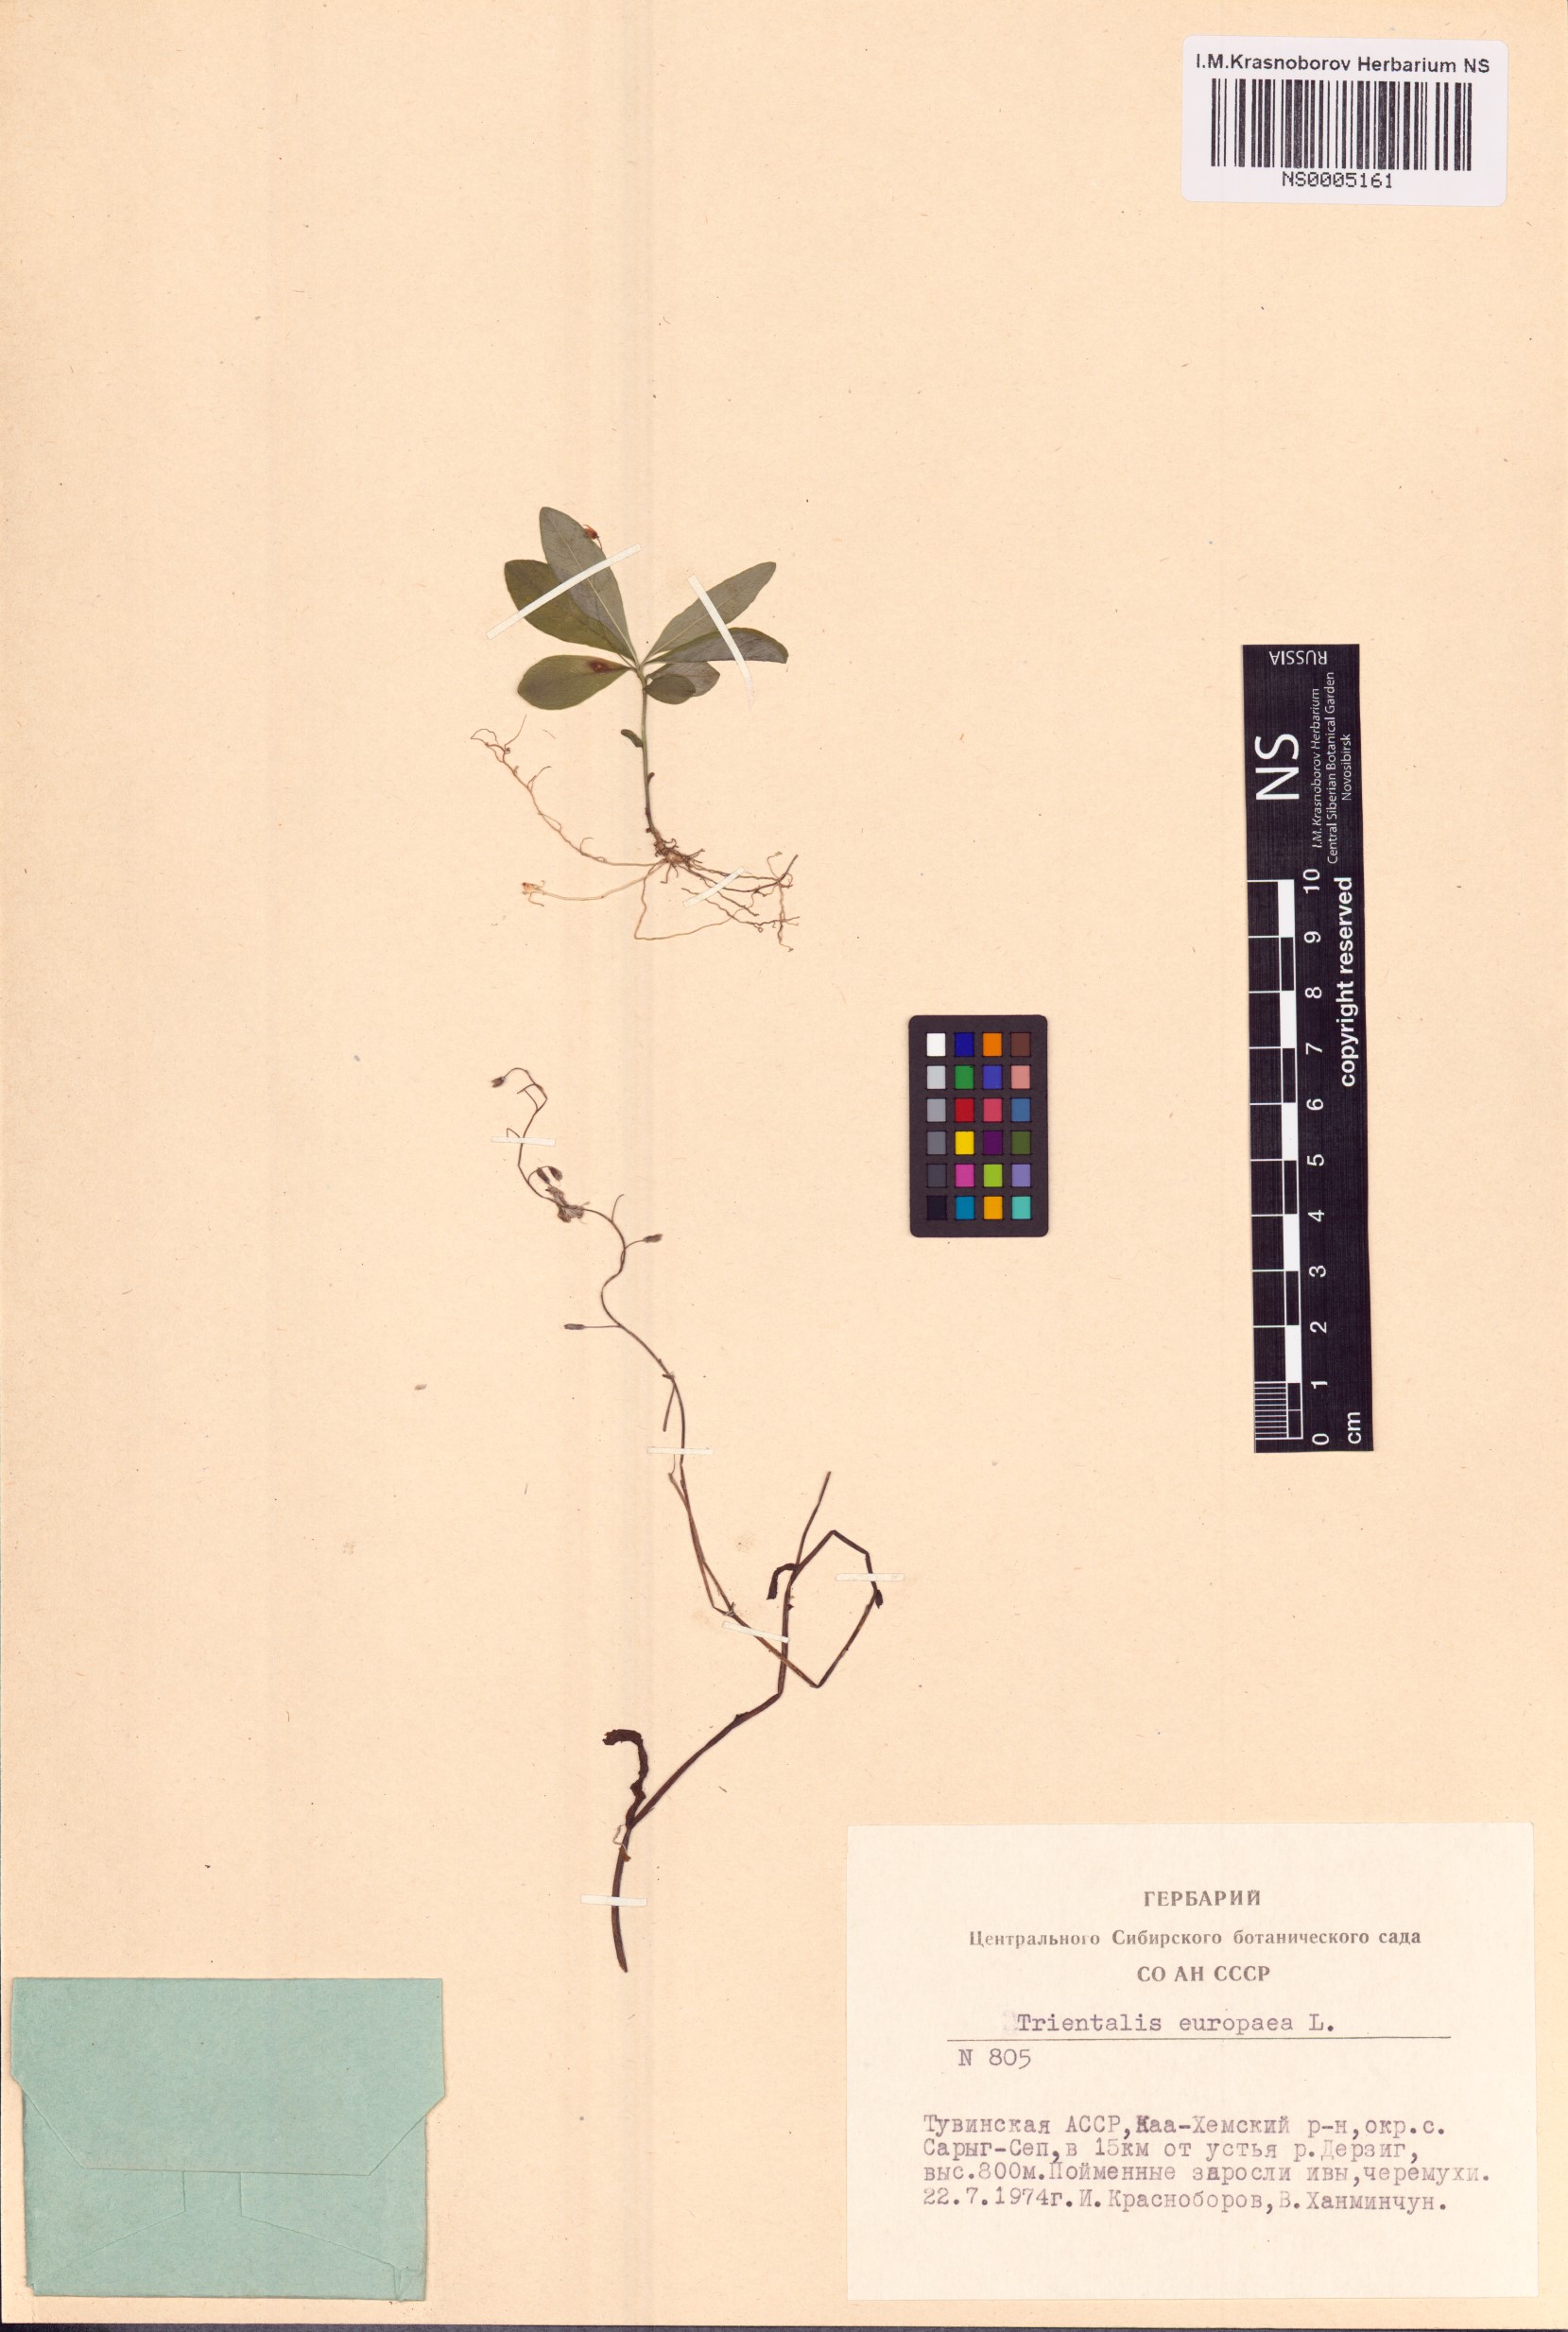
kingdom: Plantae
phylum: Tracheophyta
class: Magnoliopsida
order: Ericales
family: Primulaceae
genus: Lysimachia
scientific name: Lysimachia europaea
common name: Arctic starflower
